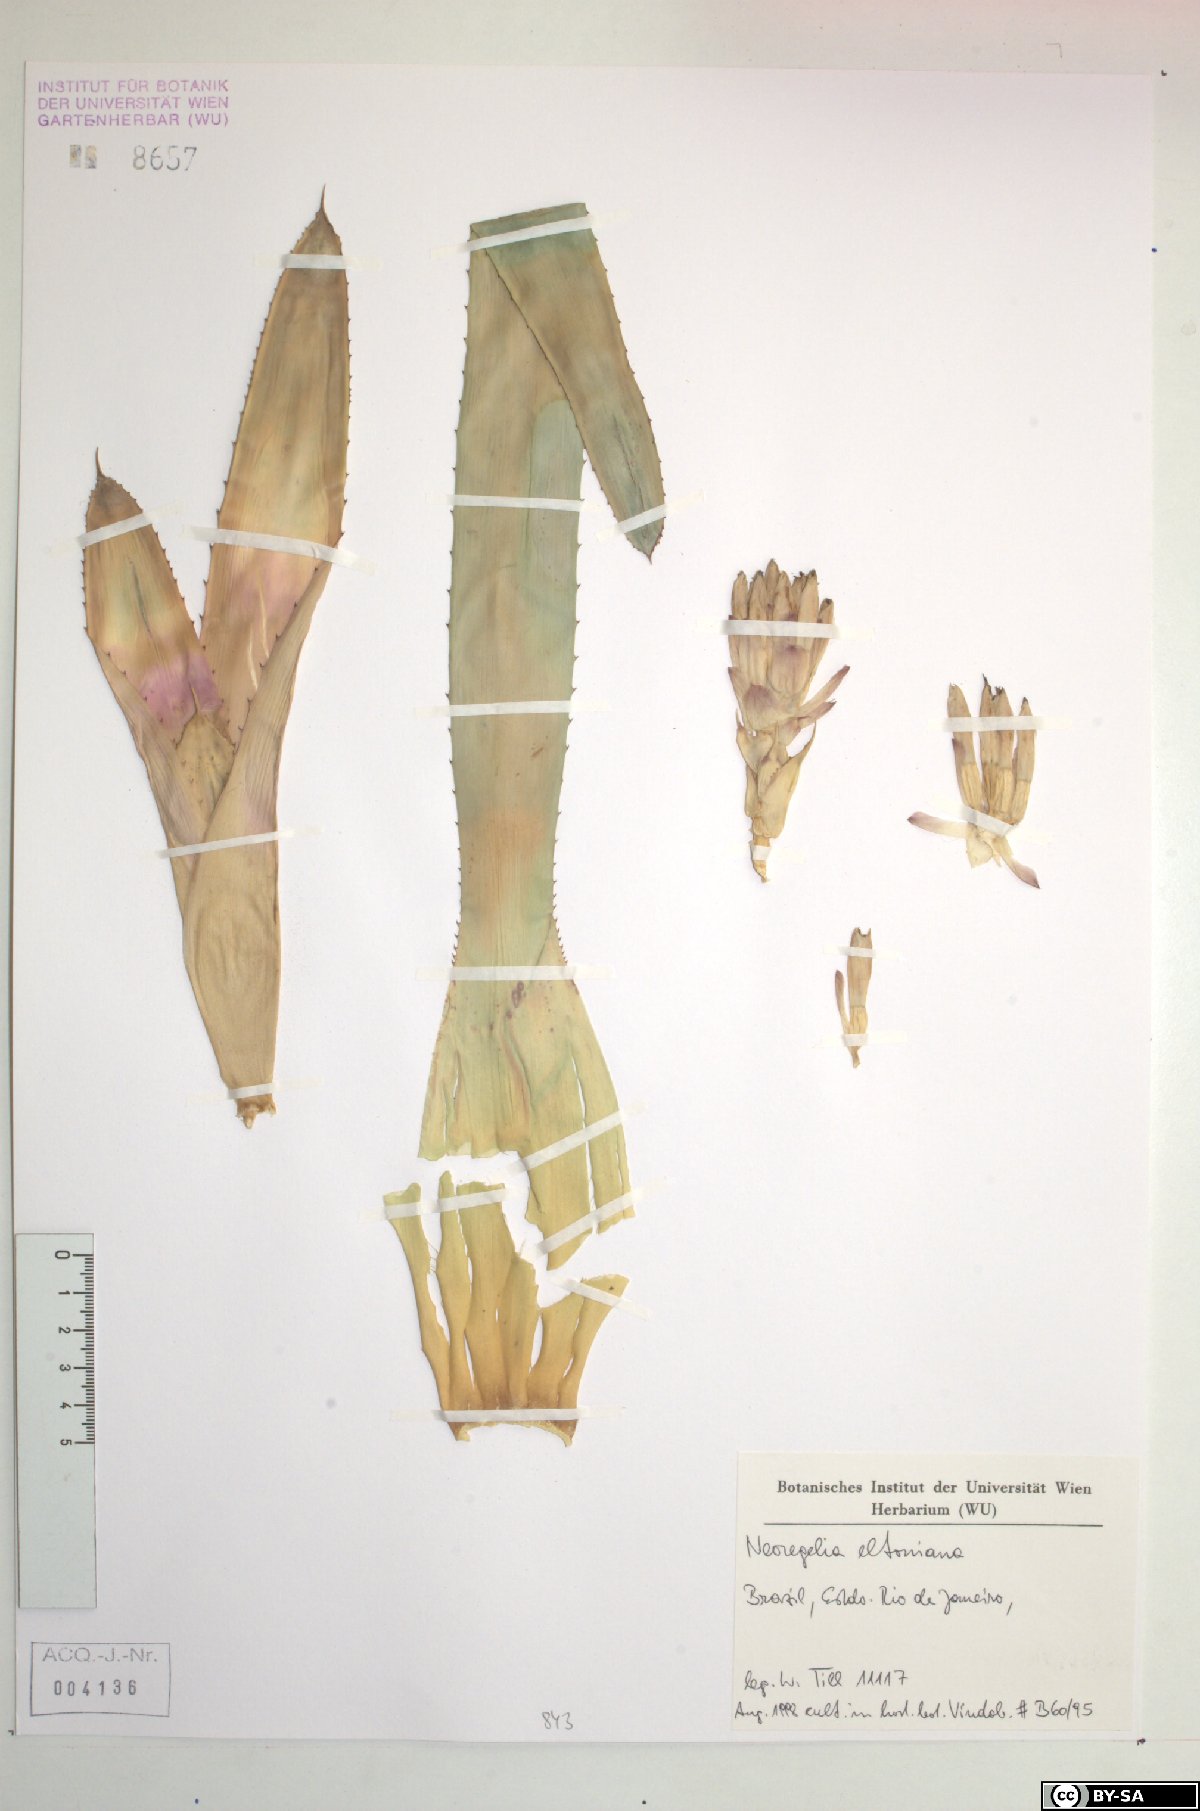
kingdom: Plantae
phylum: Tracheophyta
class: Liliopsida
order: Poales
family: Bromeliaceae
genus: Neoregelia
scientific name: Neoregelia eltoniana
